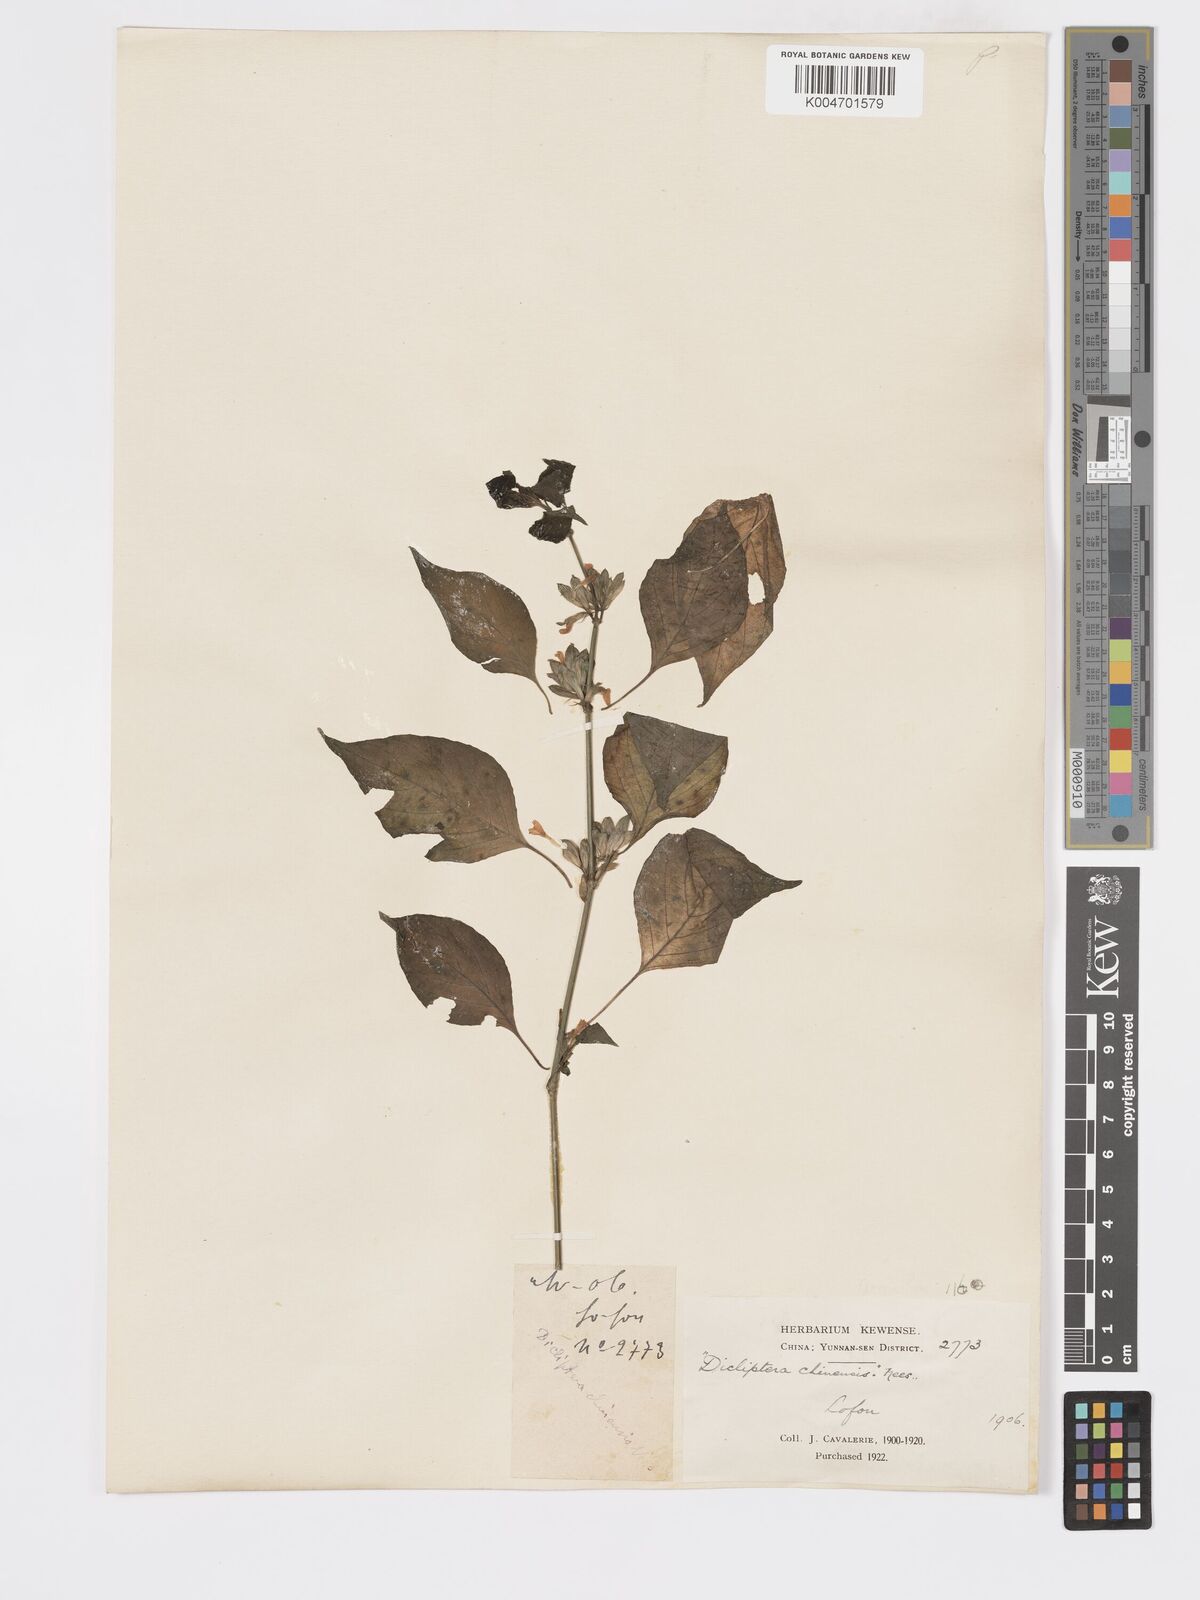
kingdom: Plantae
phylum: Tracheophyta
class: Magnoliopsida
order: Lamiales
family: Acanthaceae
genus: Dicliptera
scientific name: Dicliptera chinensis
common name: Chinese foldwing
